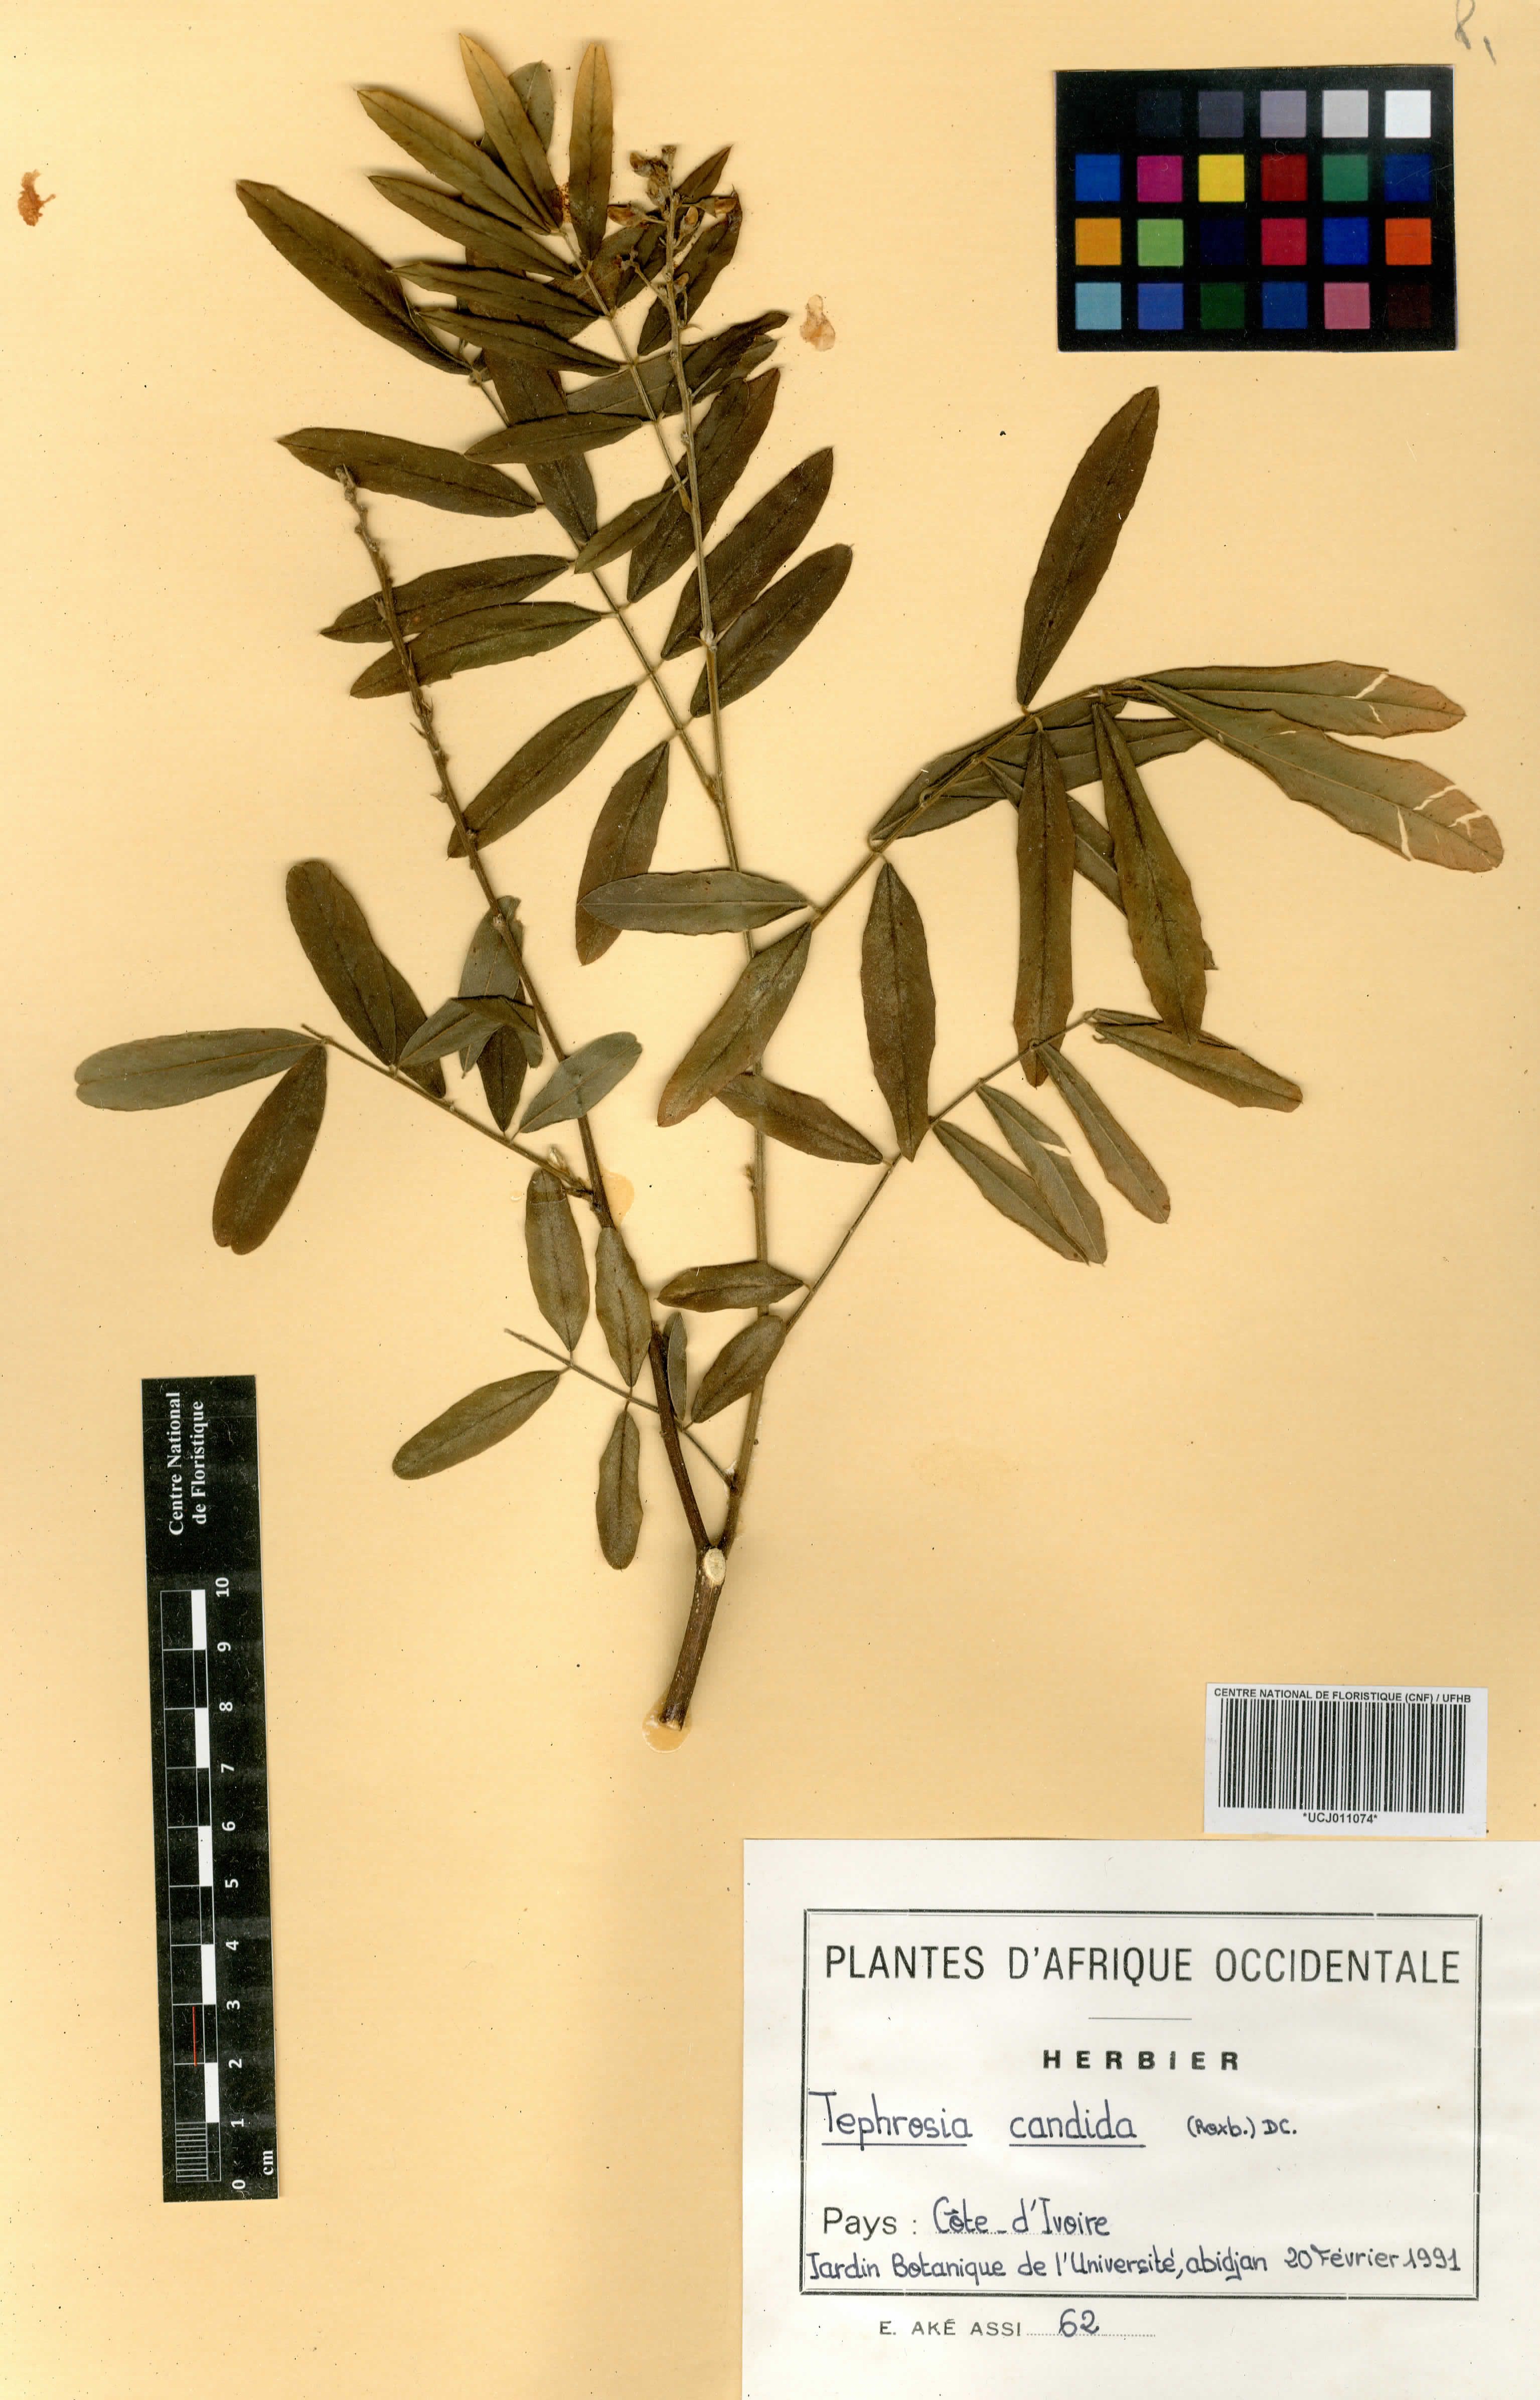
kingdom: Plantae
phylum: Tracheophyta
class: Magnoliopsida
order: Fabales
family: Fabaceae
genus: Tephrosia
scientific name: Tephrosia candida
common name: White tephrosia
